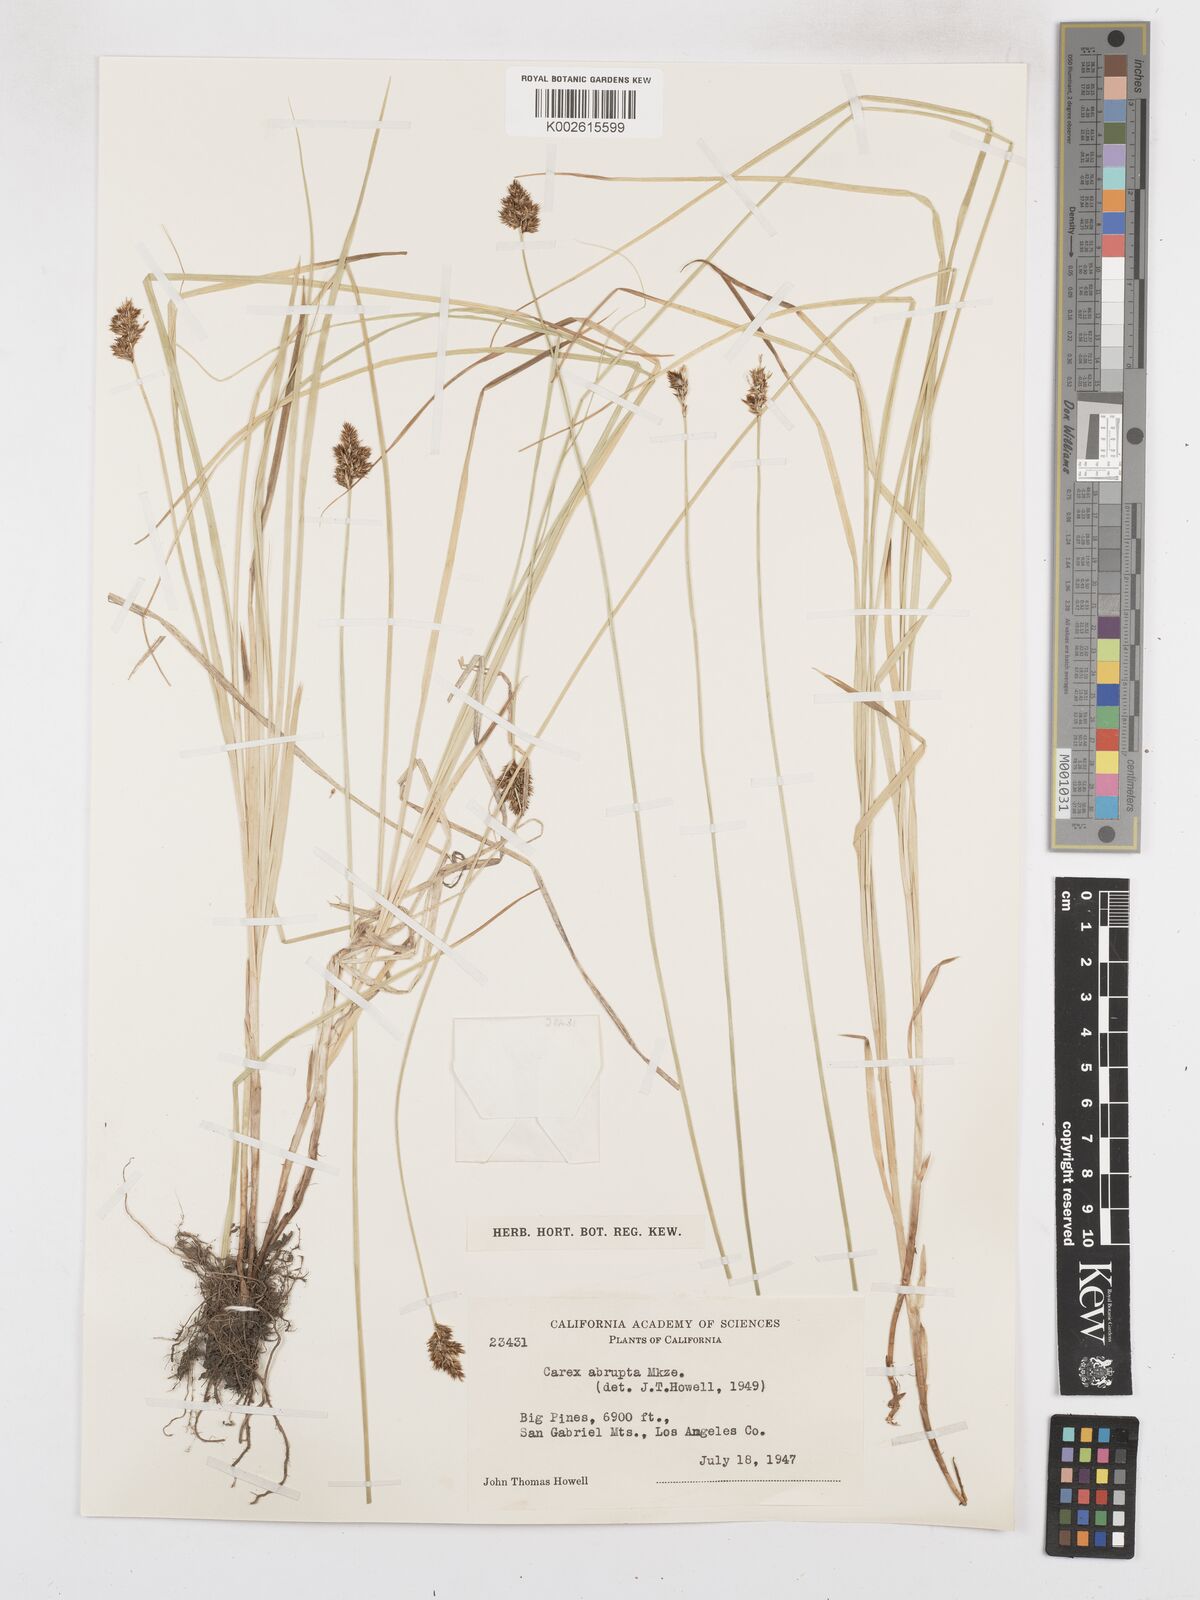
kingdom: Plantae
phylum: Tracheophyta
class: Liliopsida
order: Poales
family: Cyperaceae
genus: Carex
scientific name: Carex abrupta
